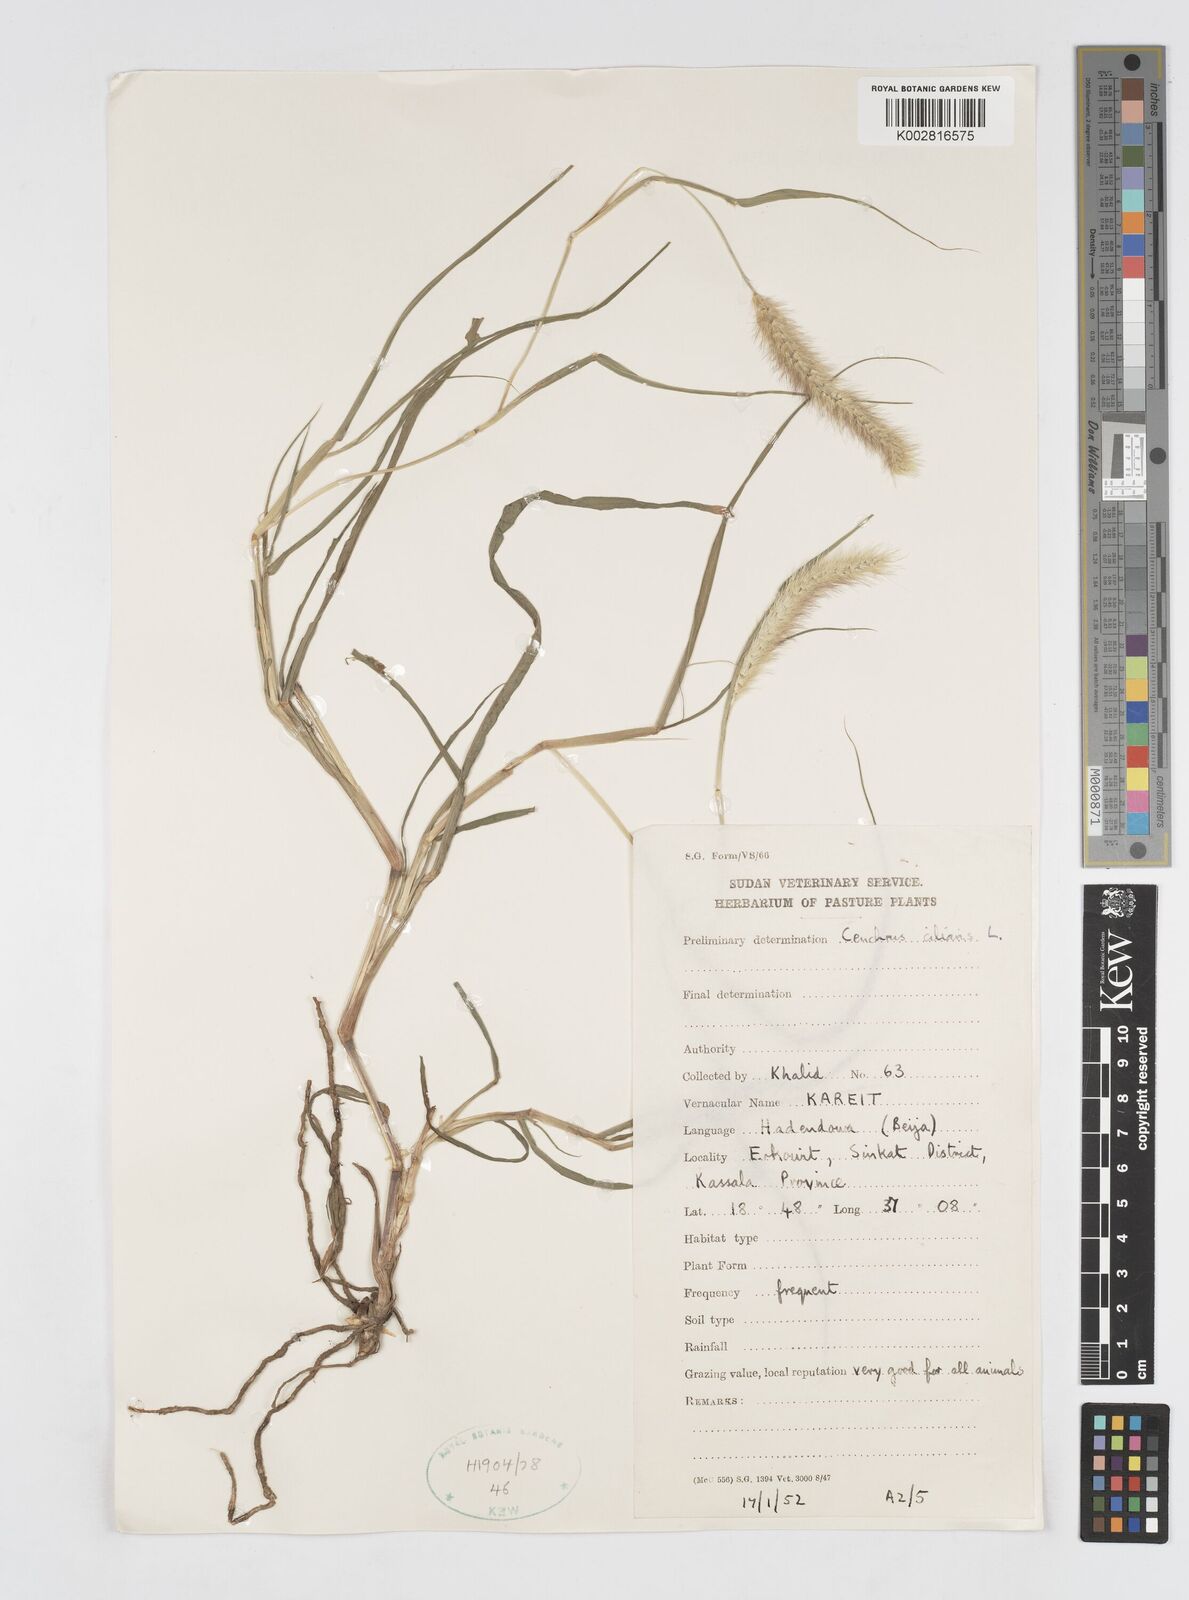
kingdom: Plantae
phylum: Tracheophyta
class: Liliopsida
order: Poales
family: Poaceae
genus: Cenchrus
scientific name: Cenchrus ciliaris
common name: Buffelgrass
